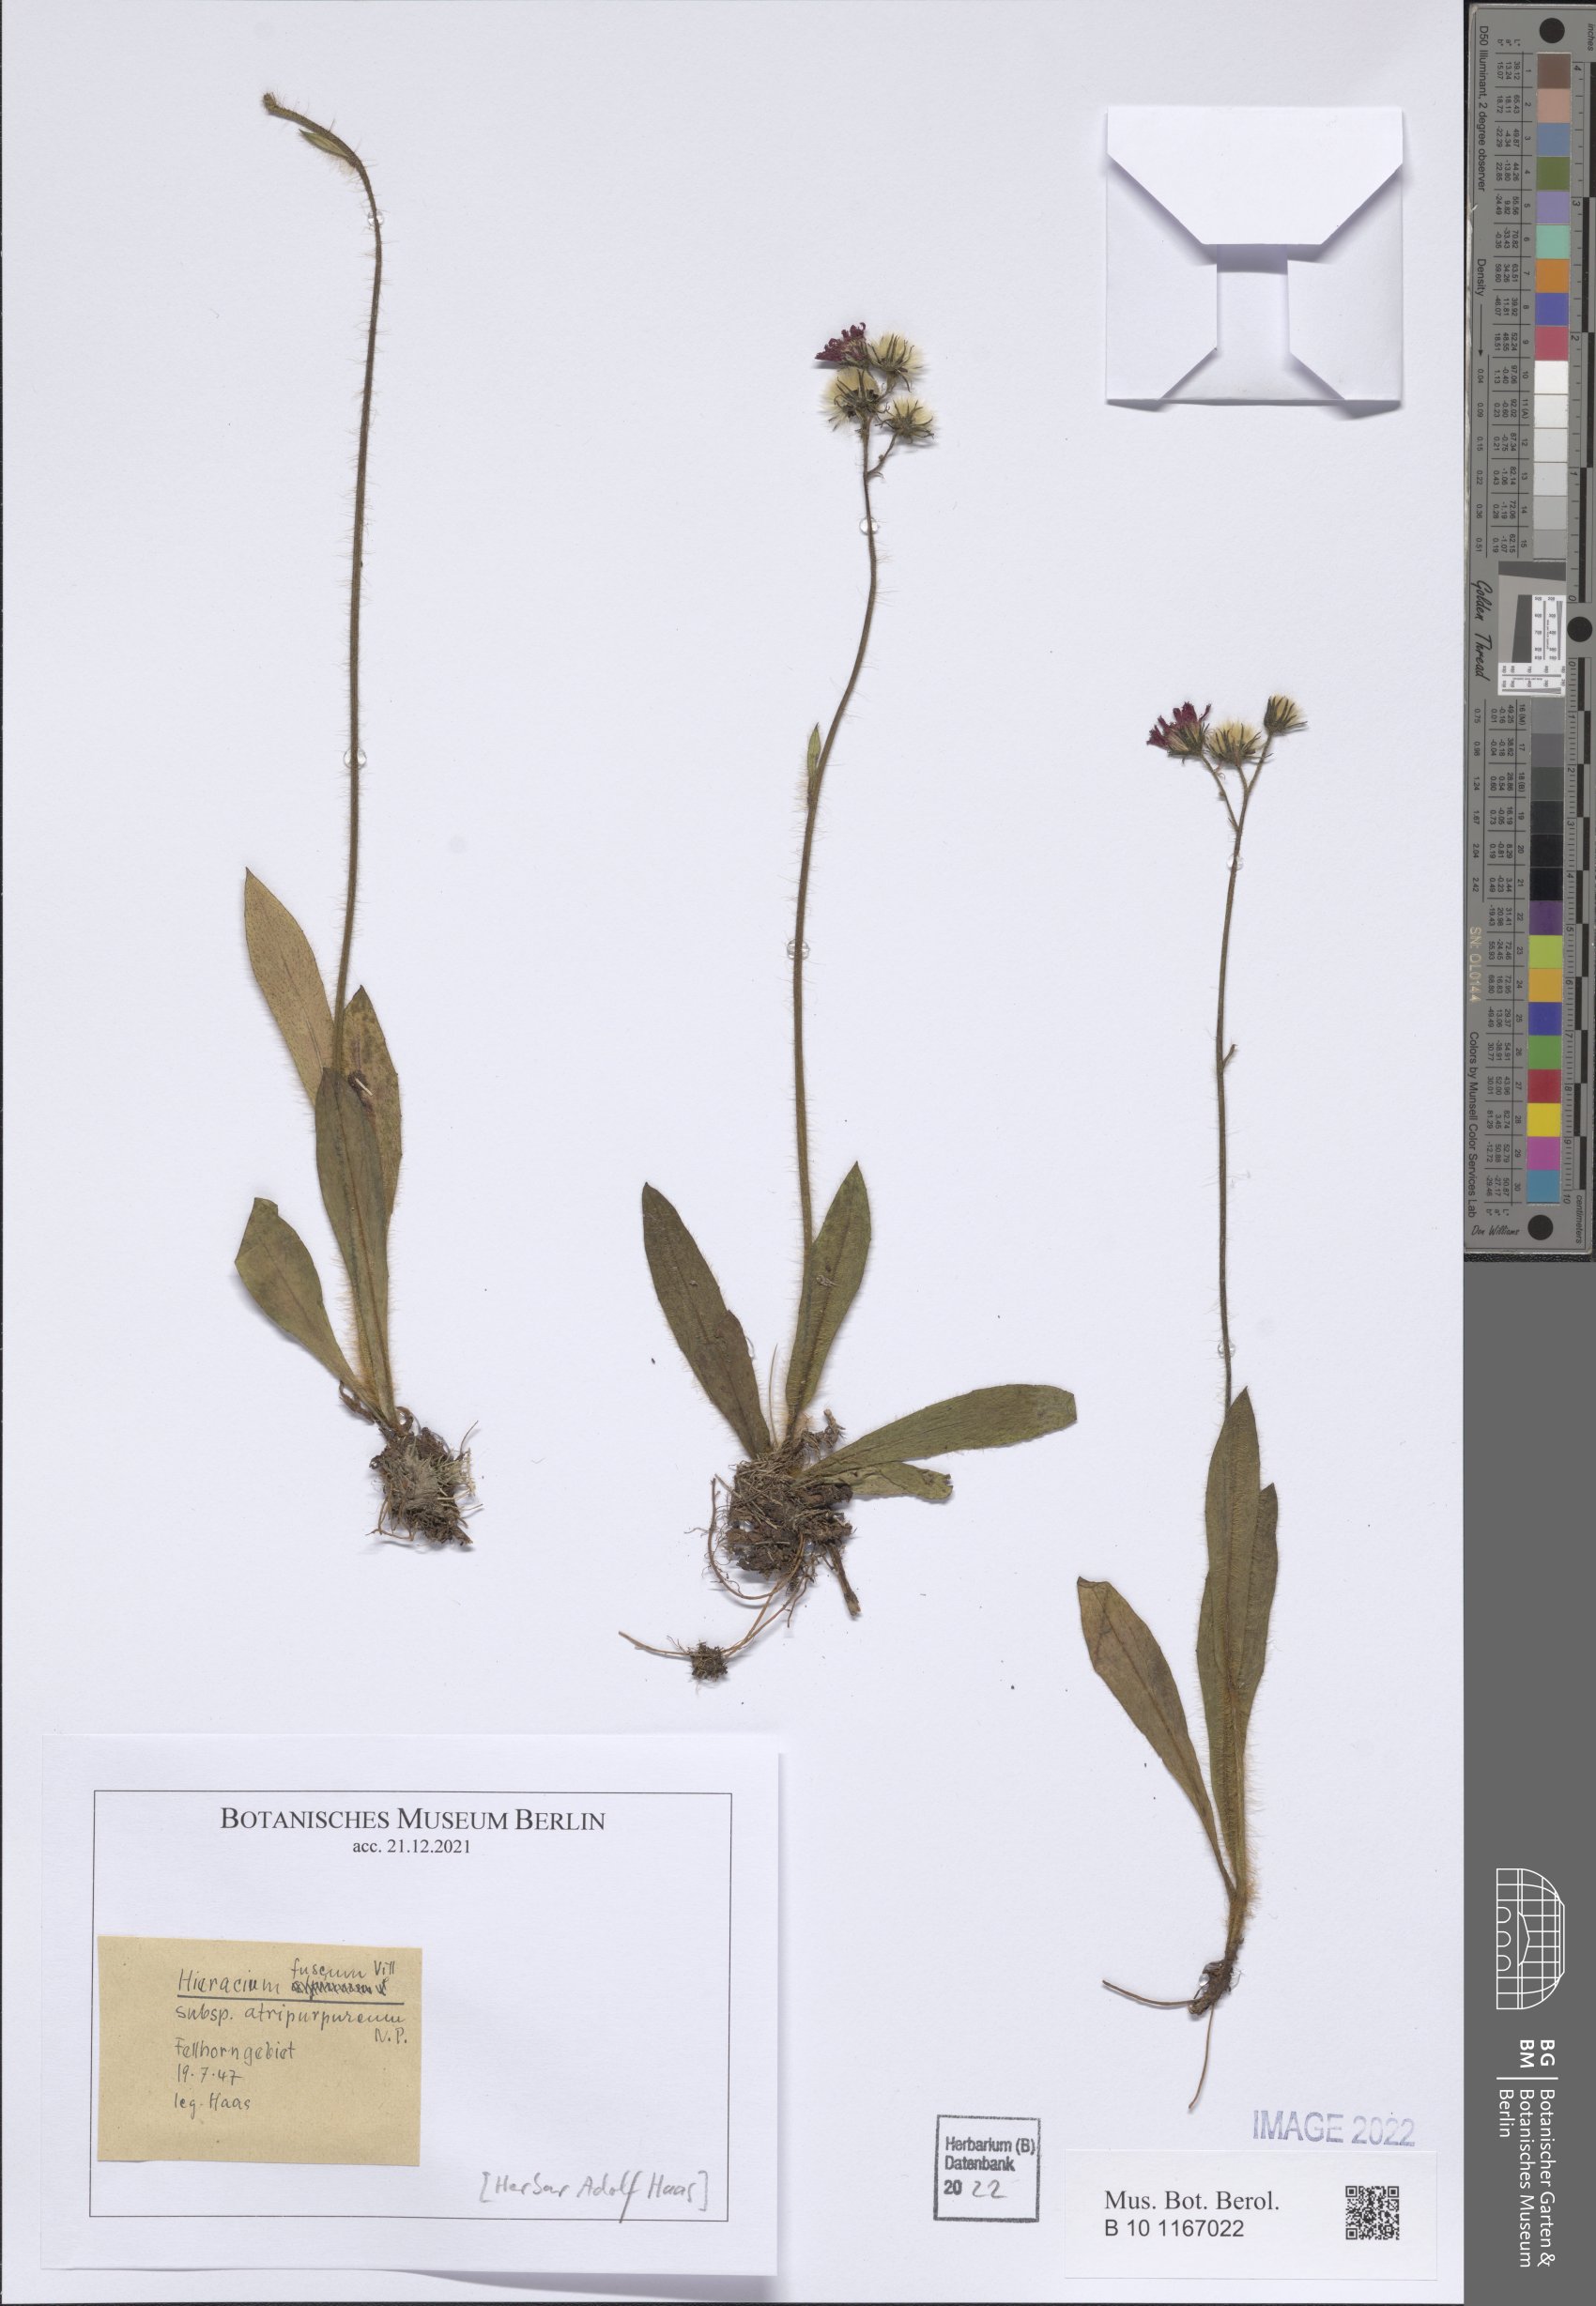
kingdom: Plantae
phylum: Tracheophyta
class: Magnoliopsida
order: Asterales
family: Asteraceae
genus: Pilosella
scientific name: Pilosella fusca
